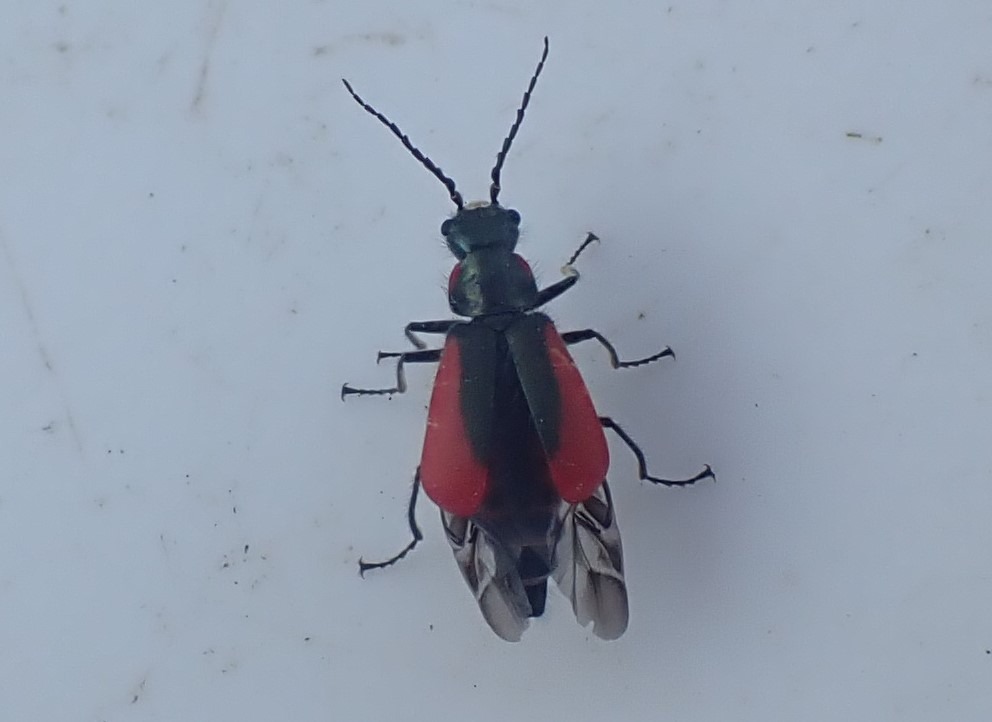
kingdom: Animalia
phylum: Arthropoda
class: Insecta
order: Coleoptera
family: Melyridae
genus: Malachius
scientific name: Malachius aeneus
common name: Stor malakitbille
